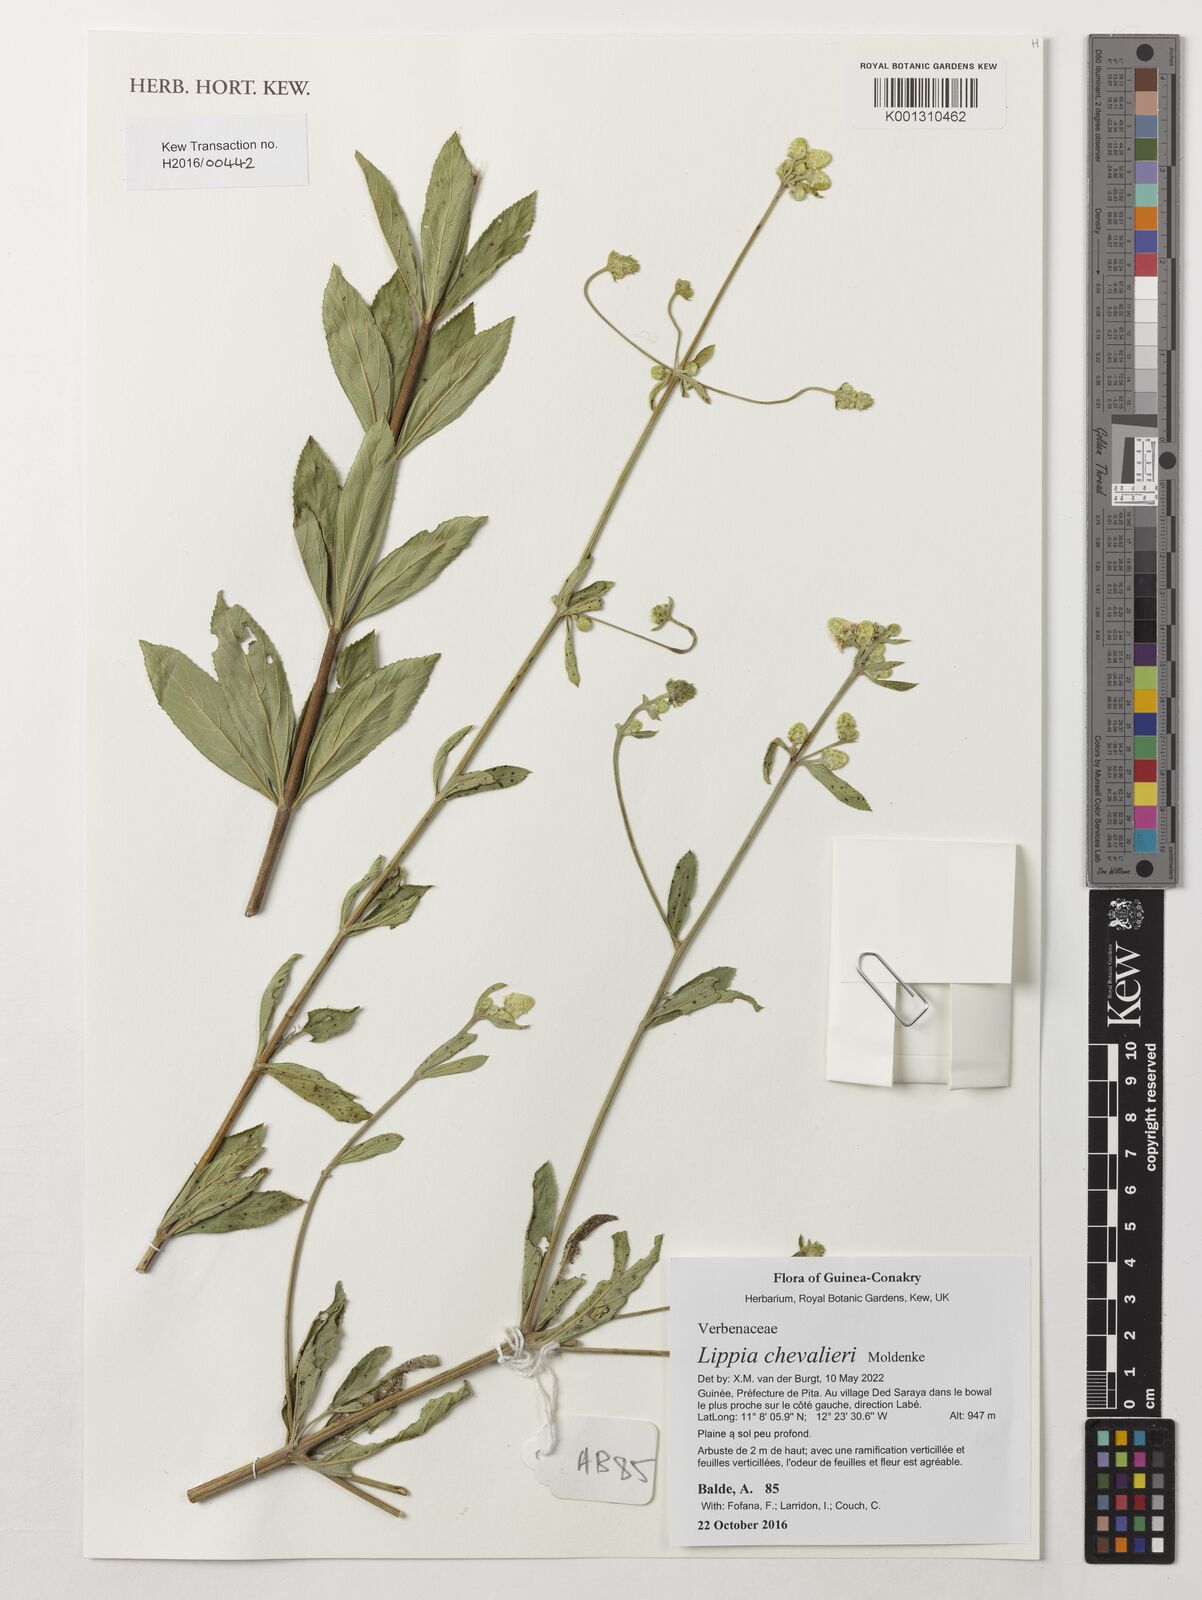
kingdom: Plantae
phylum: Tracheophyta
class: Magnoliopsida
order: Lamiales
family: Verbenaceae
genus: Lippia
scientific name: Lippia chevalieri
